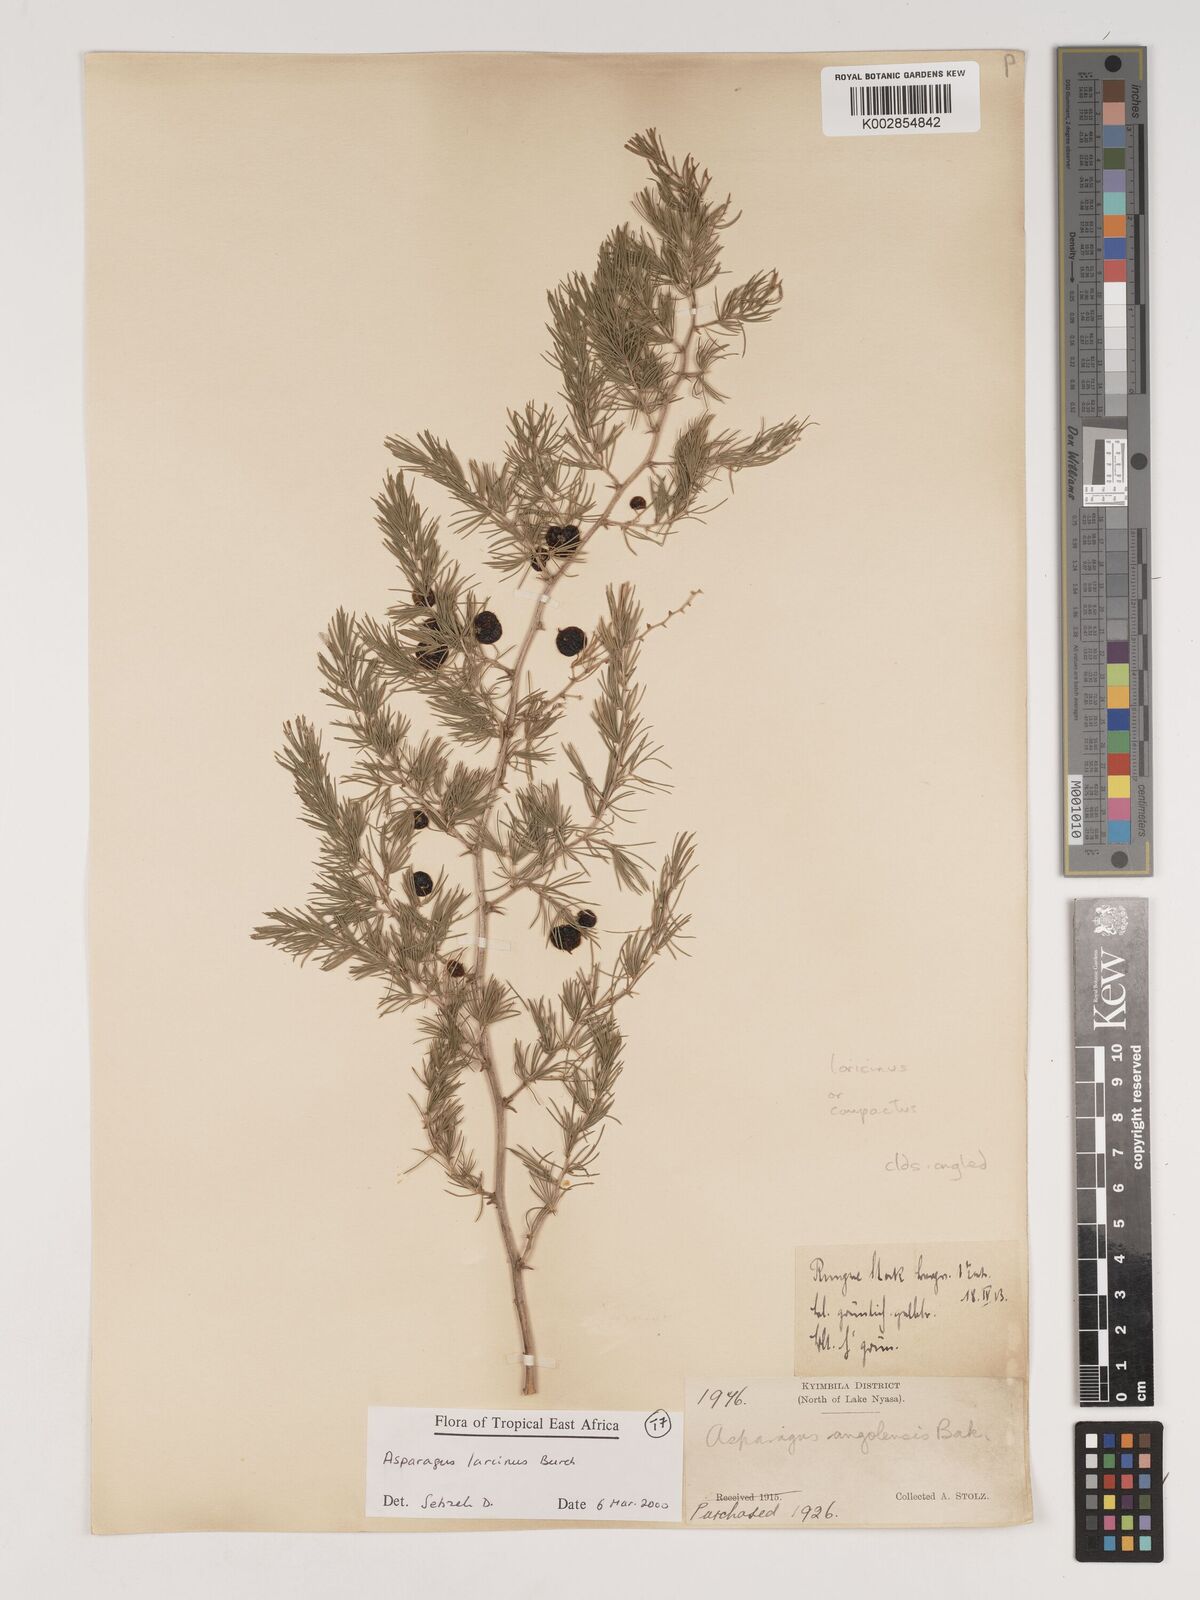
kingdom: Plantae
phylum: Tracheophyta
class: Liliopsida
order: Asparagales
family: Asparagaceae
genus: Asparagus
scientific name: Asparagus laricinus
